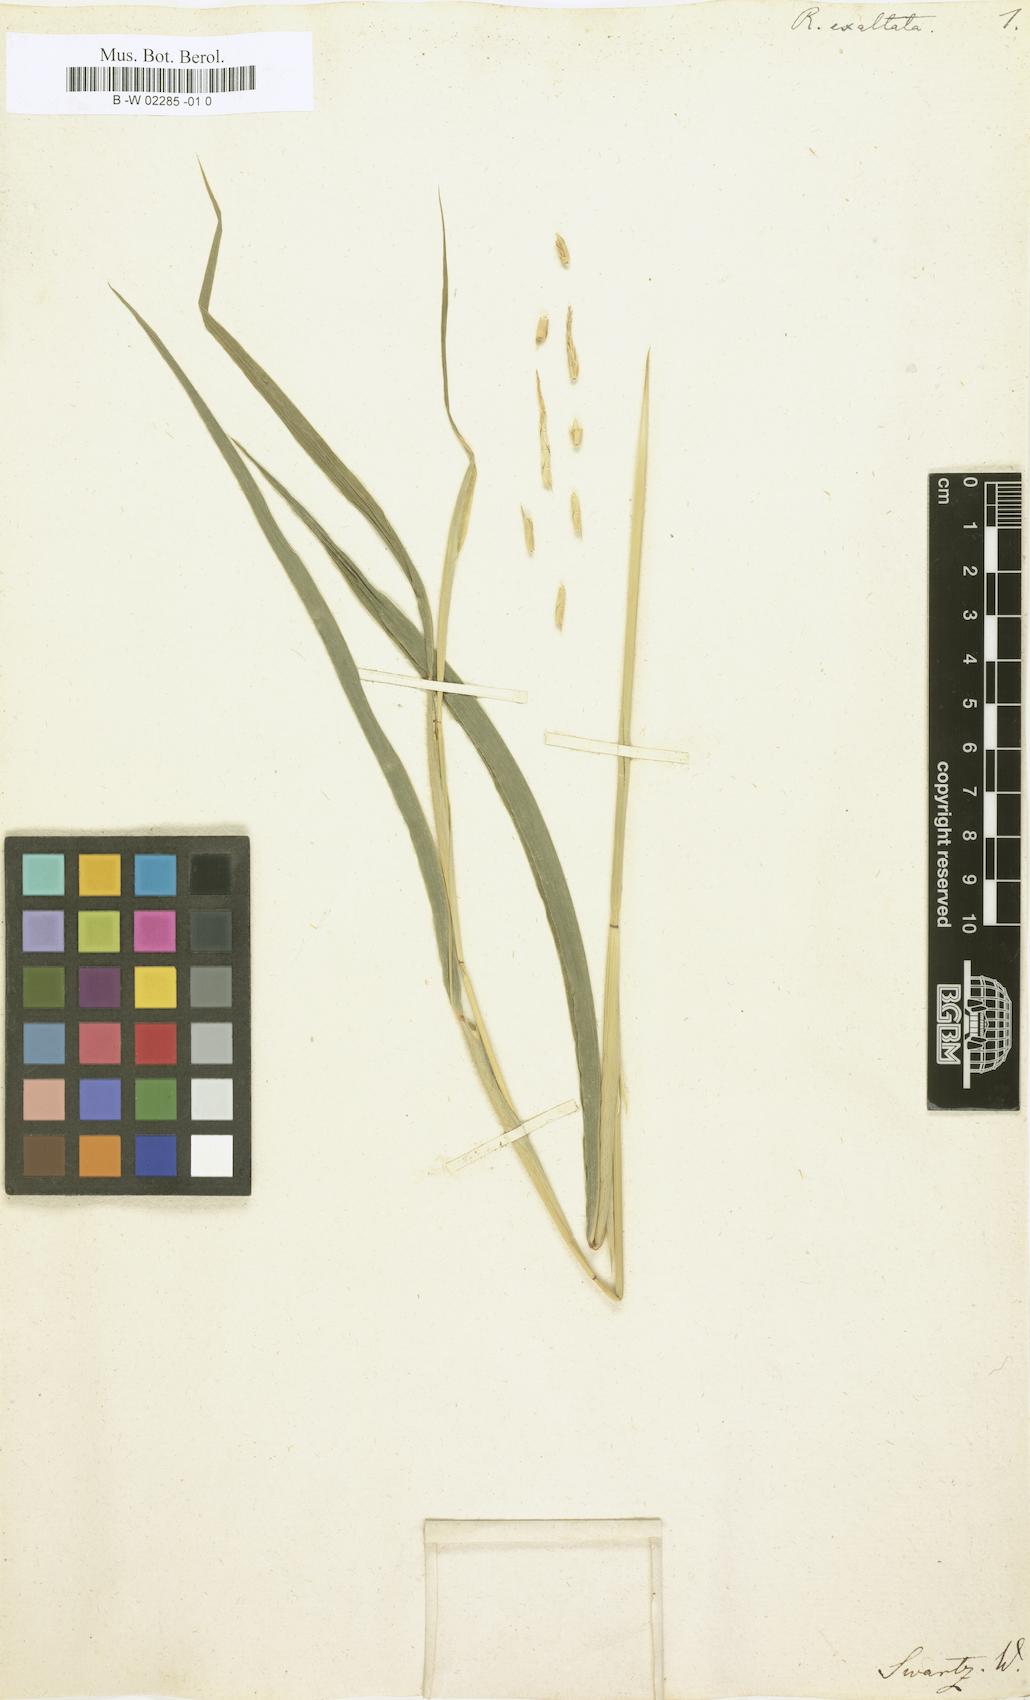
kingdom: Plantae
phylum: Tracheophyta
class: Liliopsida
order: Poales
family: Poaceae
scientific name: Poaceae
